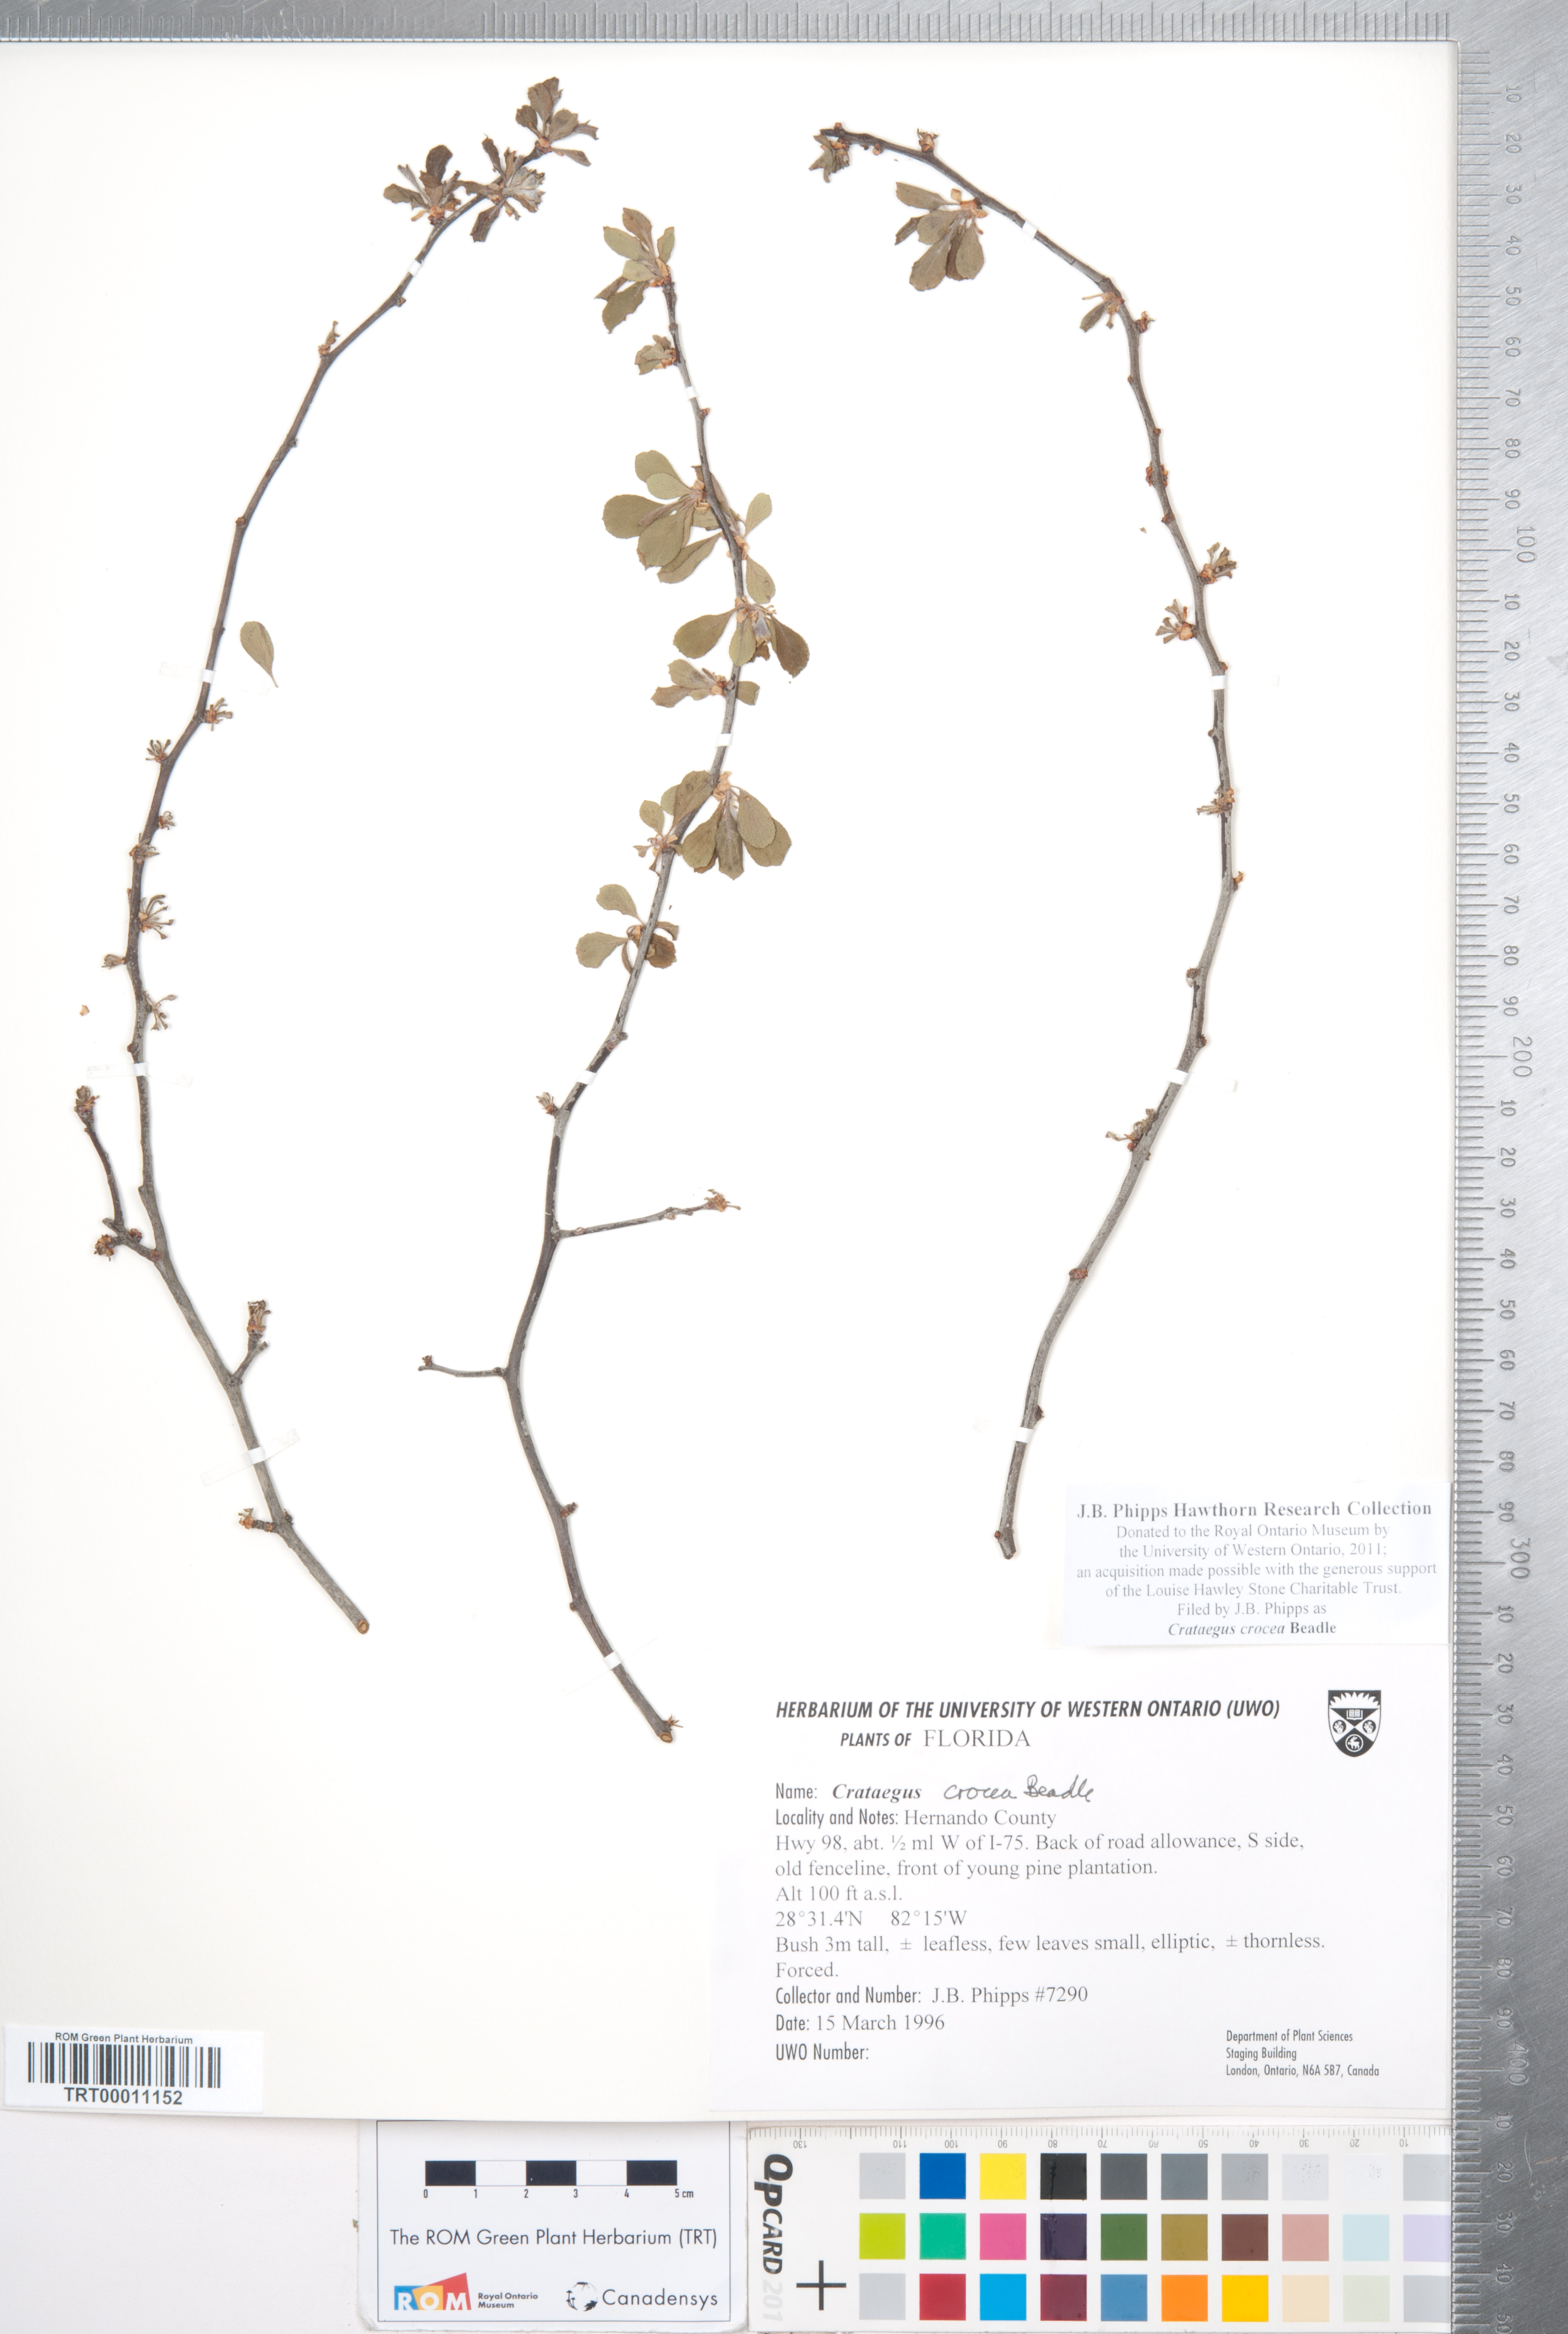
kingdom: Plantae
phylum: Tracheophyta
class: Magnoliopsida
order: Rosales
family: Rosaceae
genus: Crataegus
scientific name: Crataegus lassa
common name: Florida hawthorn
